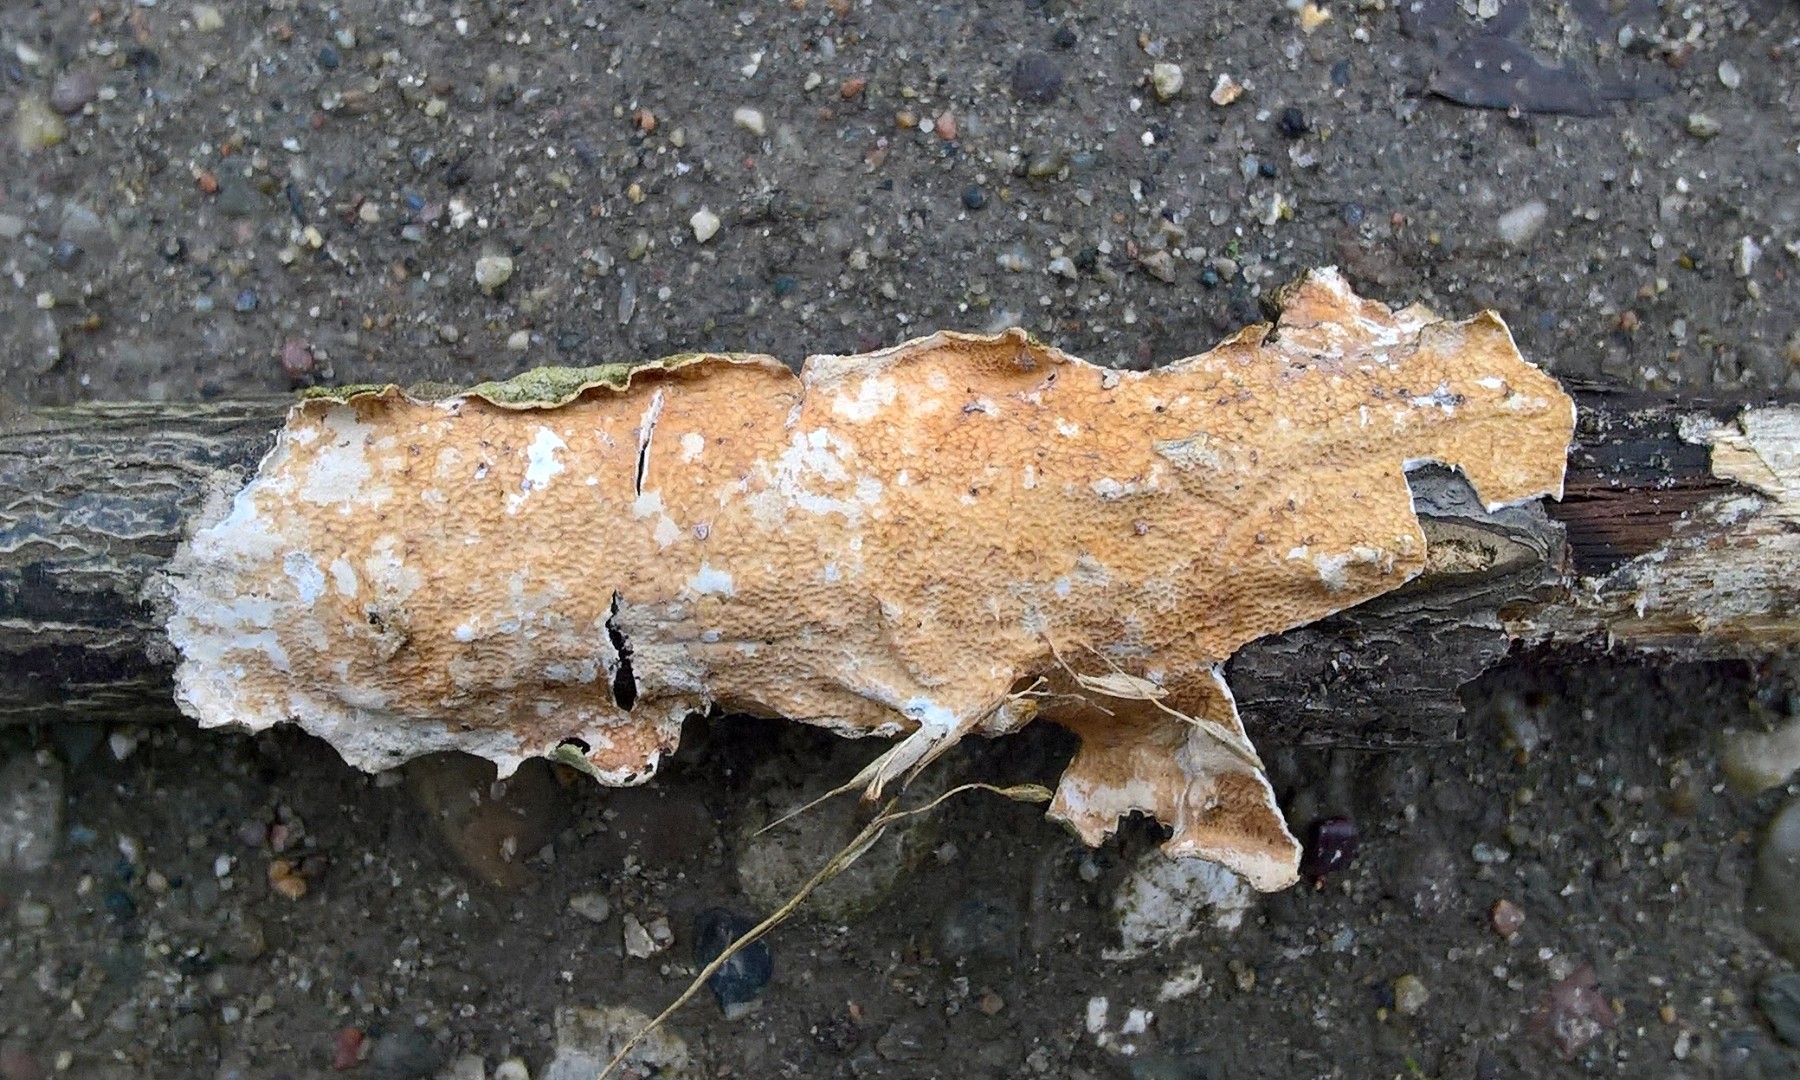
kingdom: Fungi
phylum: Basidiomycota
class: Agaricomycetes
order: Polyporales
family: Irpicaceae
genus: Byssomerulius
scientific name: Byssomerulius corium
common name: læder-åresvamp
